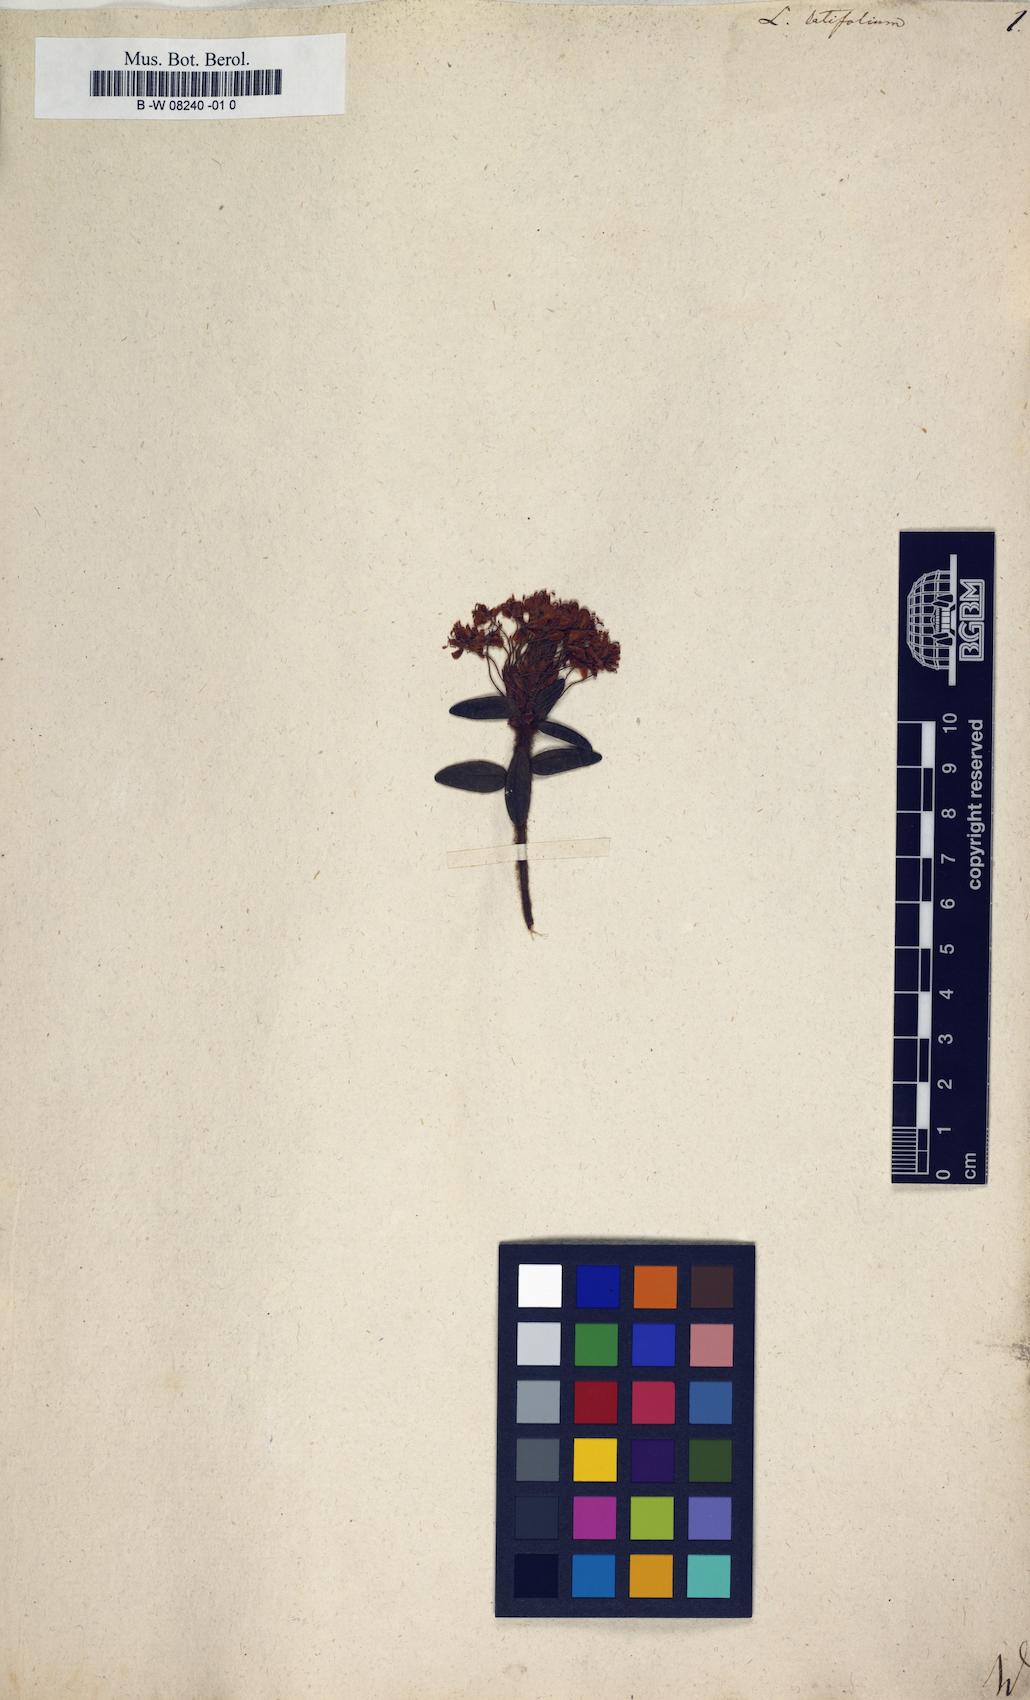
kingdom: Plantae
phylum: Tracheophyta
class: Magnoliopsida
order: Ericales
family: Ericaceae
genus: Rhododendron
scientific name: Rhododendron groenlandicum
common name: Bog labrador tea
